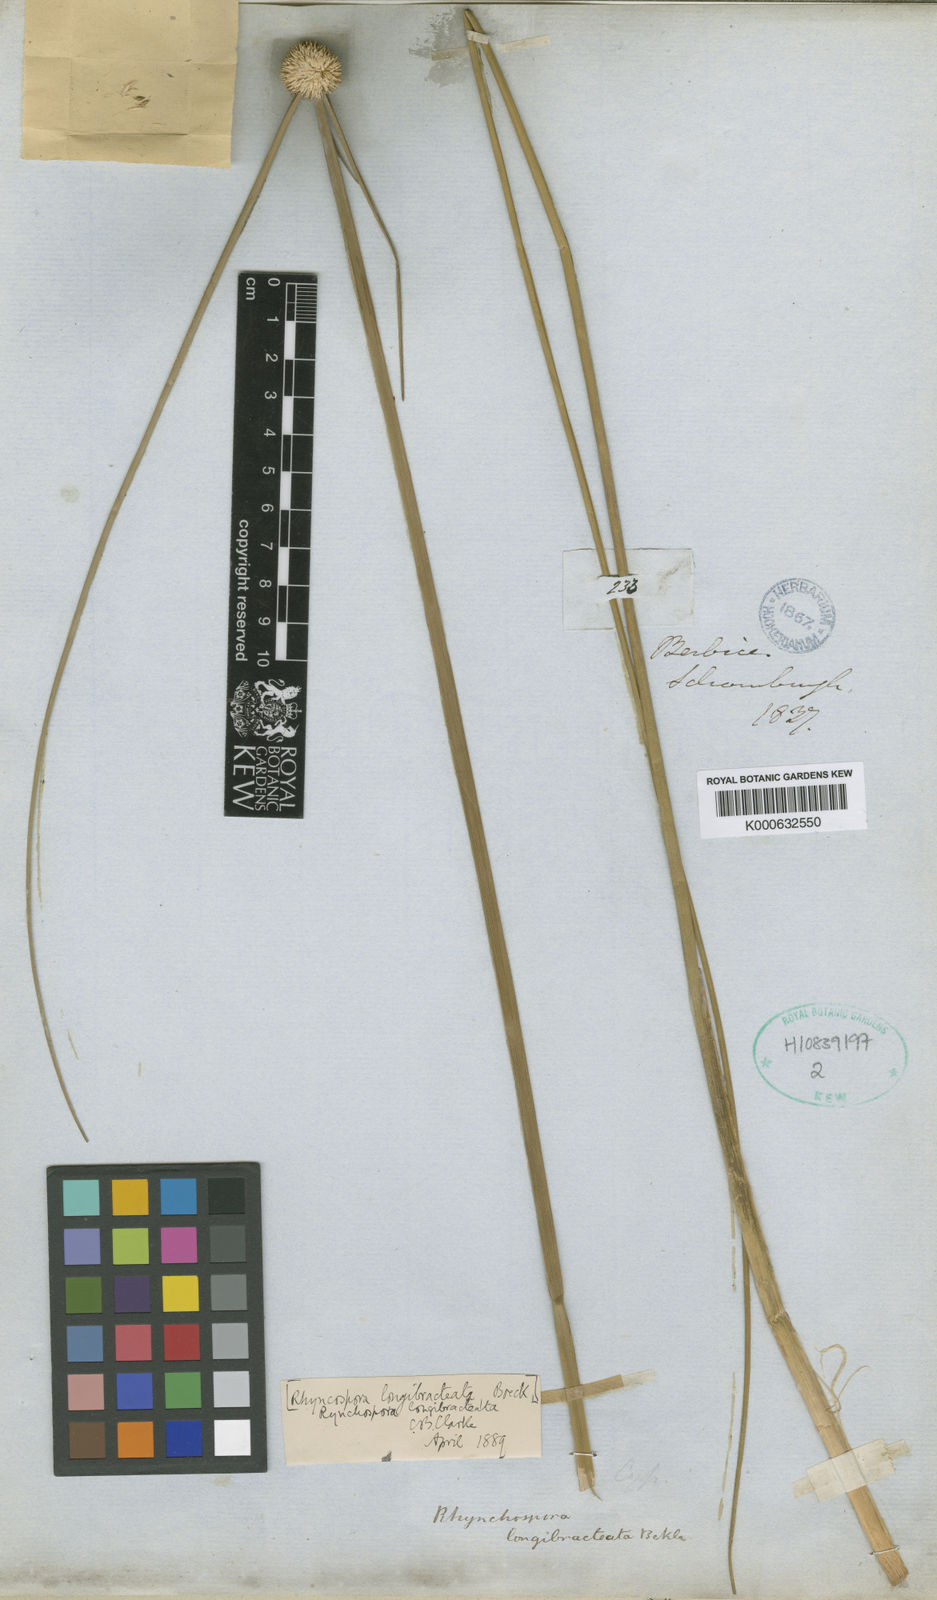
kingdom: Plantae
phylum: Tracheophyta
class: Liliopsida
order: Poales
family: Cyperaceae
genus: Rhynchospora
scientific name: Rhynchospora longibracteata
